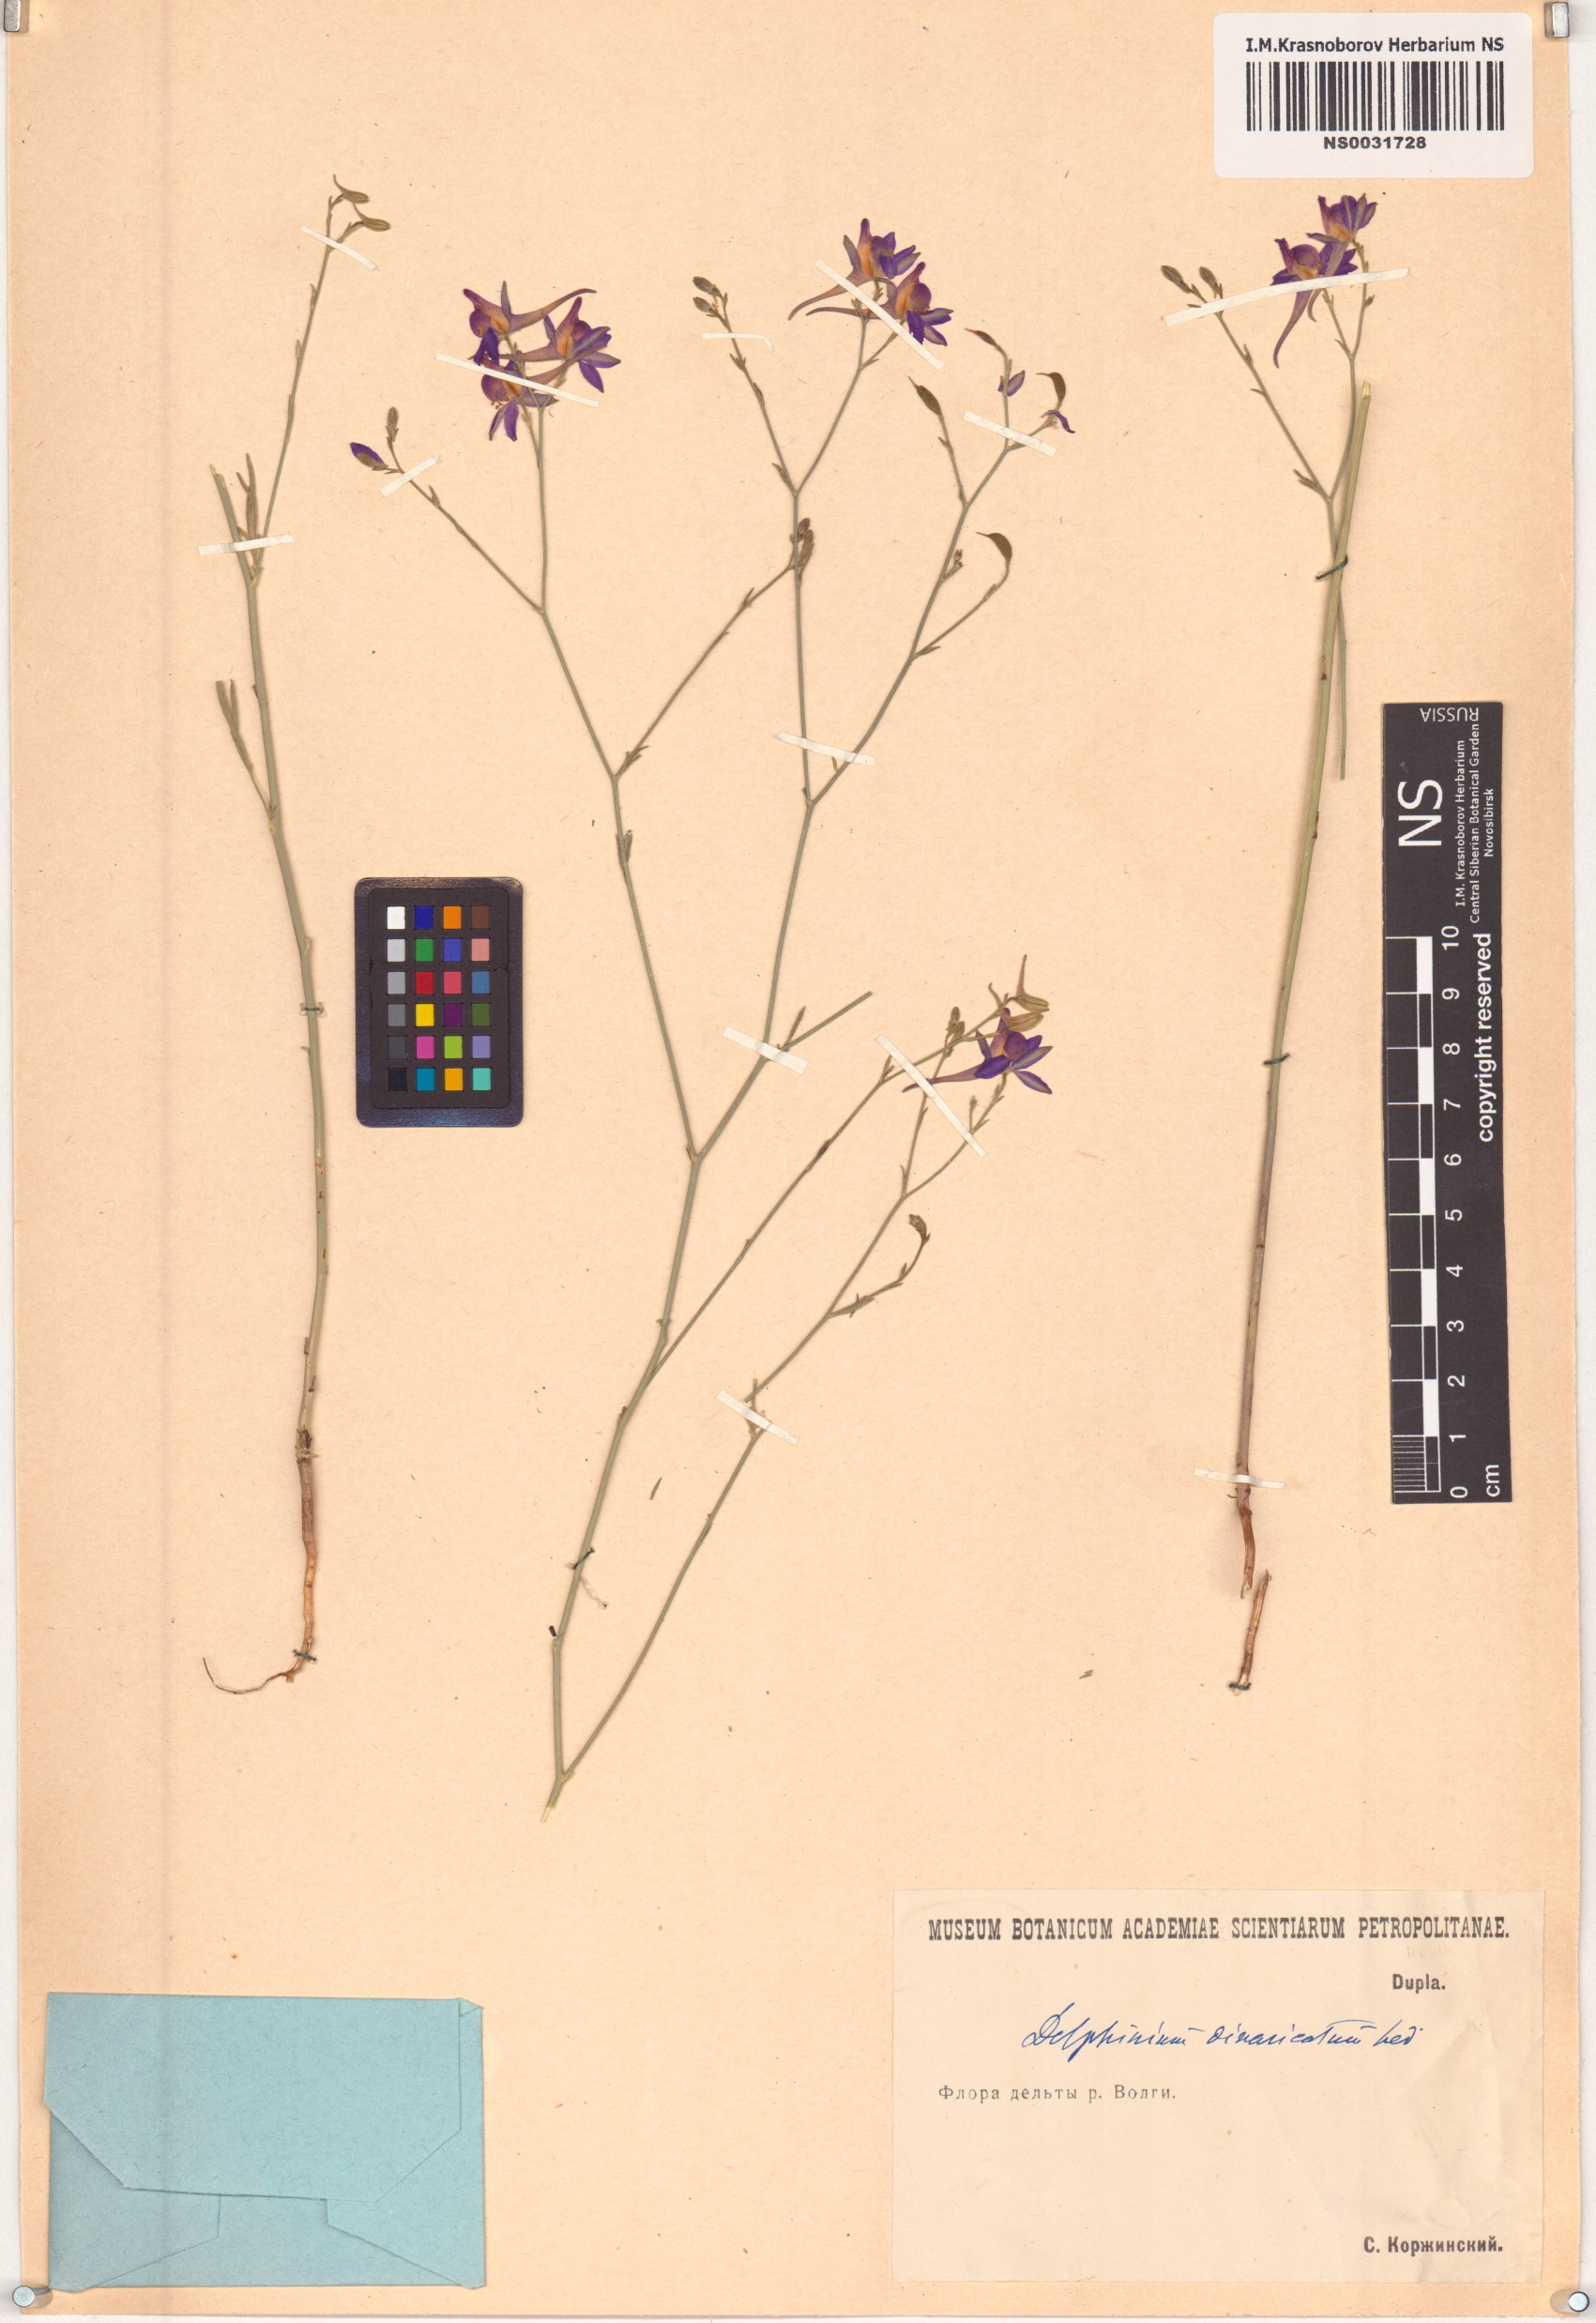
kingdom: Plantae
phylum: Tracheophyta
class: Magnoliopsida
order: Ranunculales
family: Ranunculaceae
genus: Delphinium
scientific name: Delphinium consolida
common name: Branching larkspur
